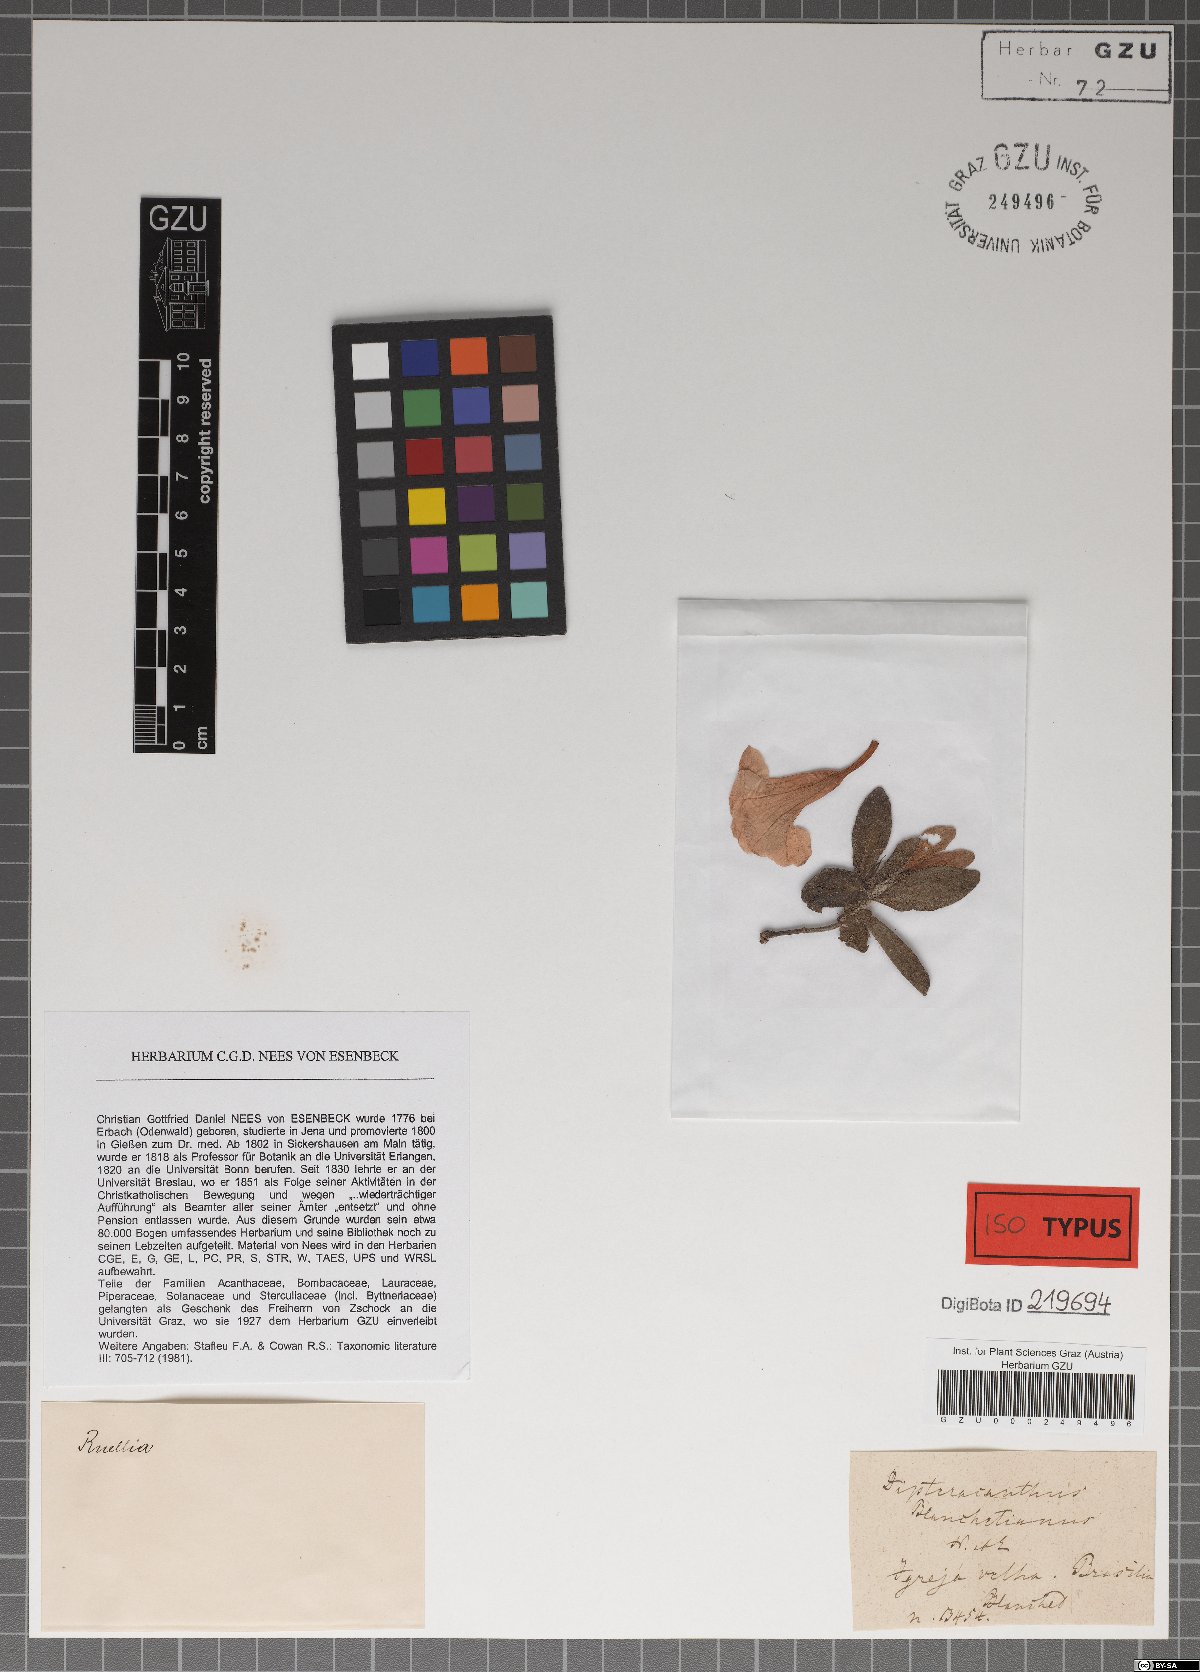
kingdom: Plantae
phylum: Tracheophyta
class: Magnoliopsida
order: Lamiales
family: Acanthaceae
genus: Ruellia
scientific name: Ruellia blanchetiana
